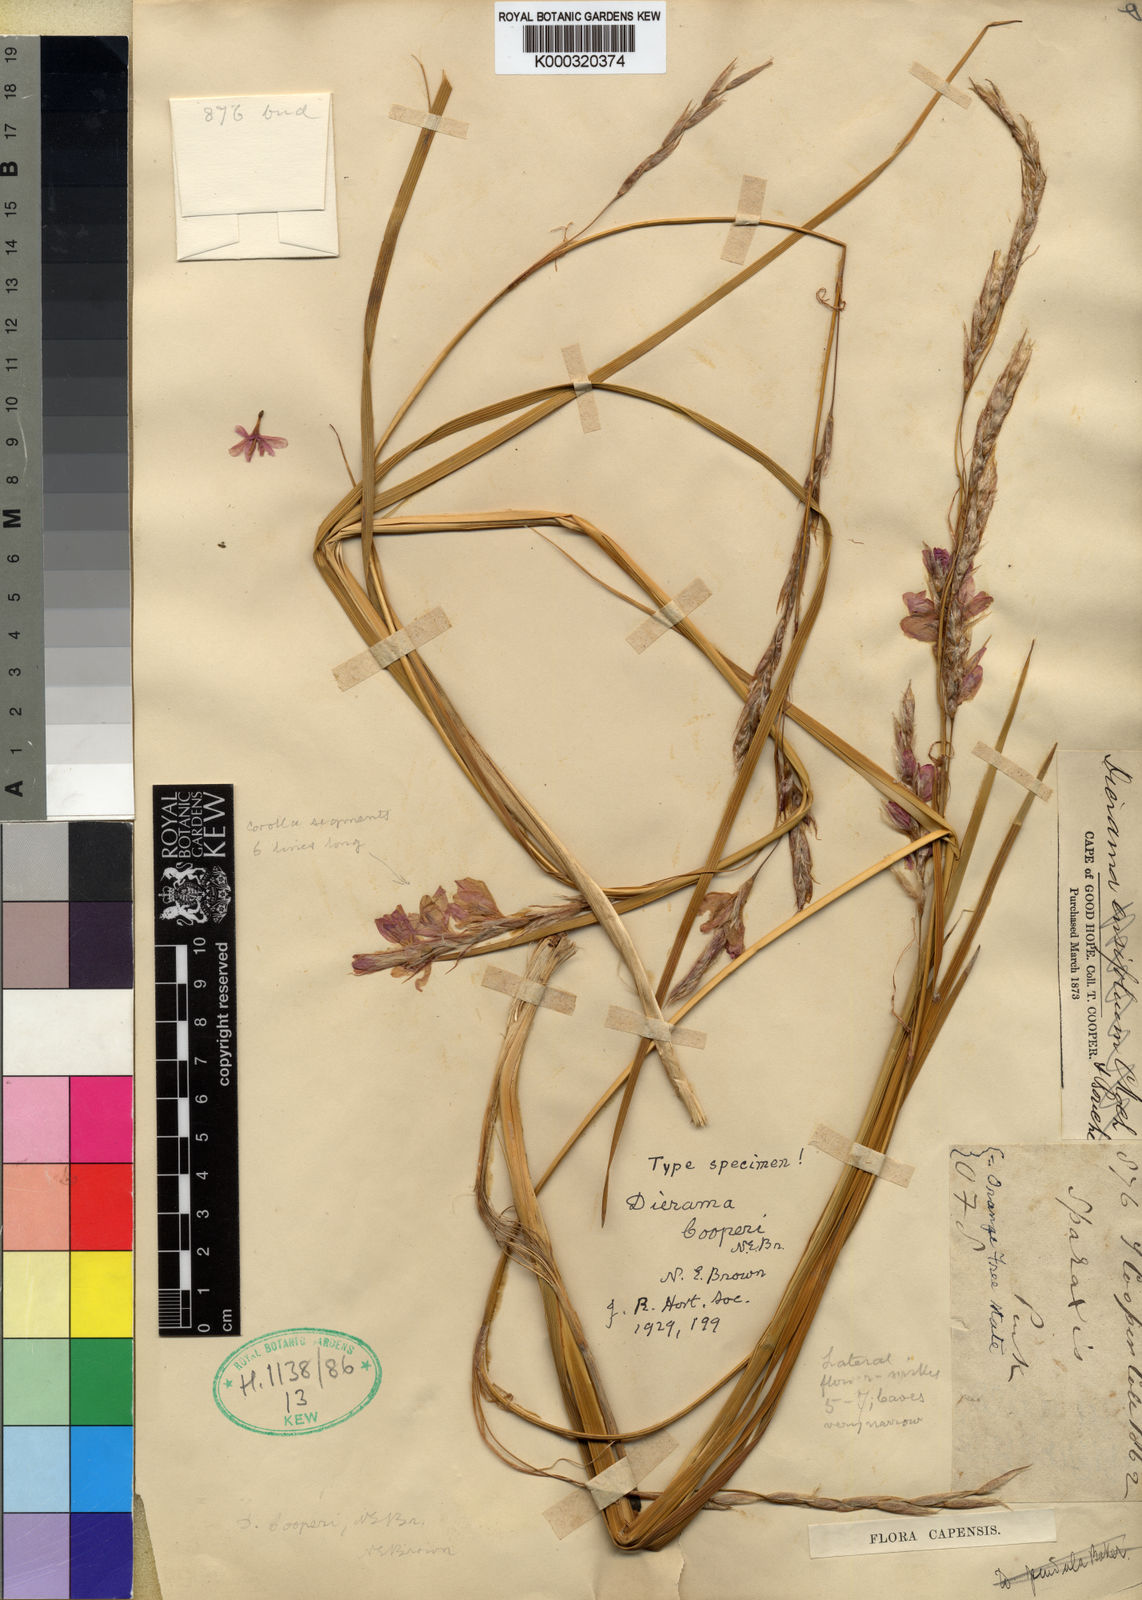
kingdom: Plantae
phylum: Tracheophyta
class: Liliopsida
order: Asparagales
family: Iridaceae
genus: Dierama
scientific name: Dierama cooperi
